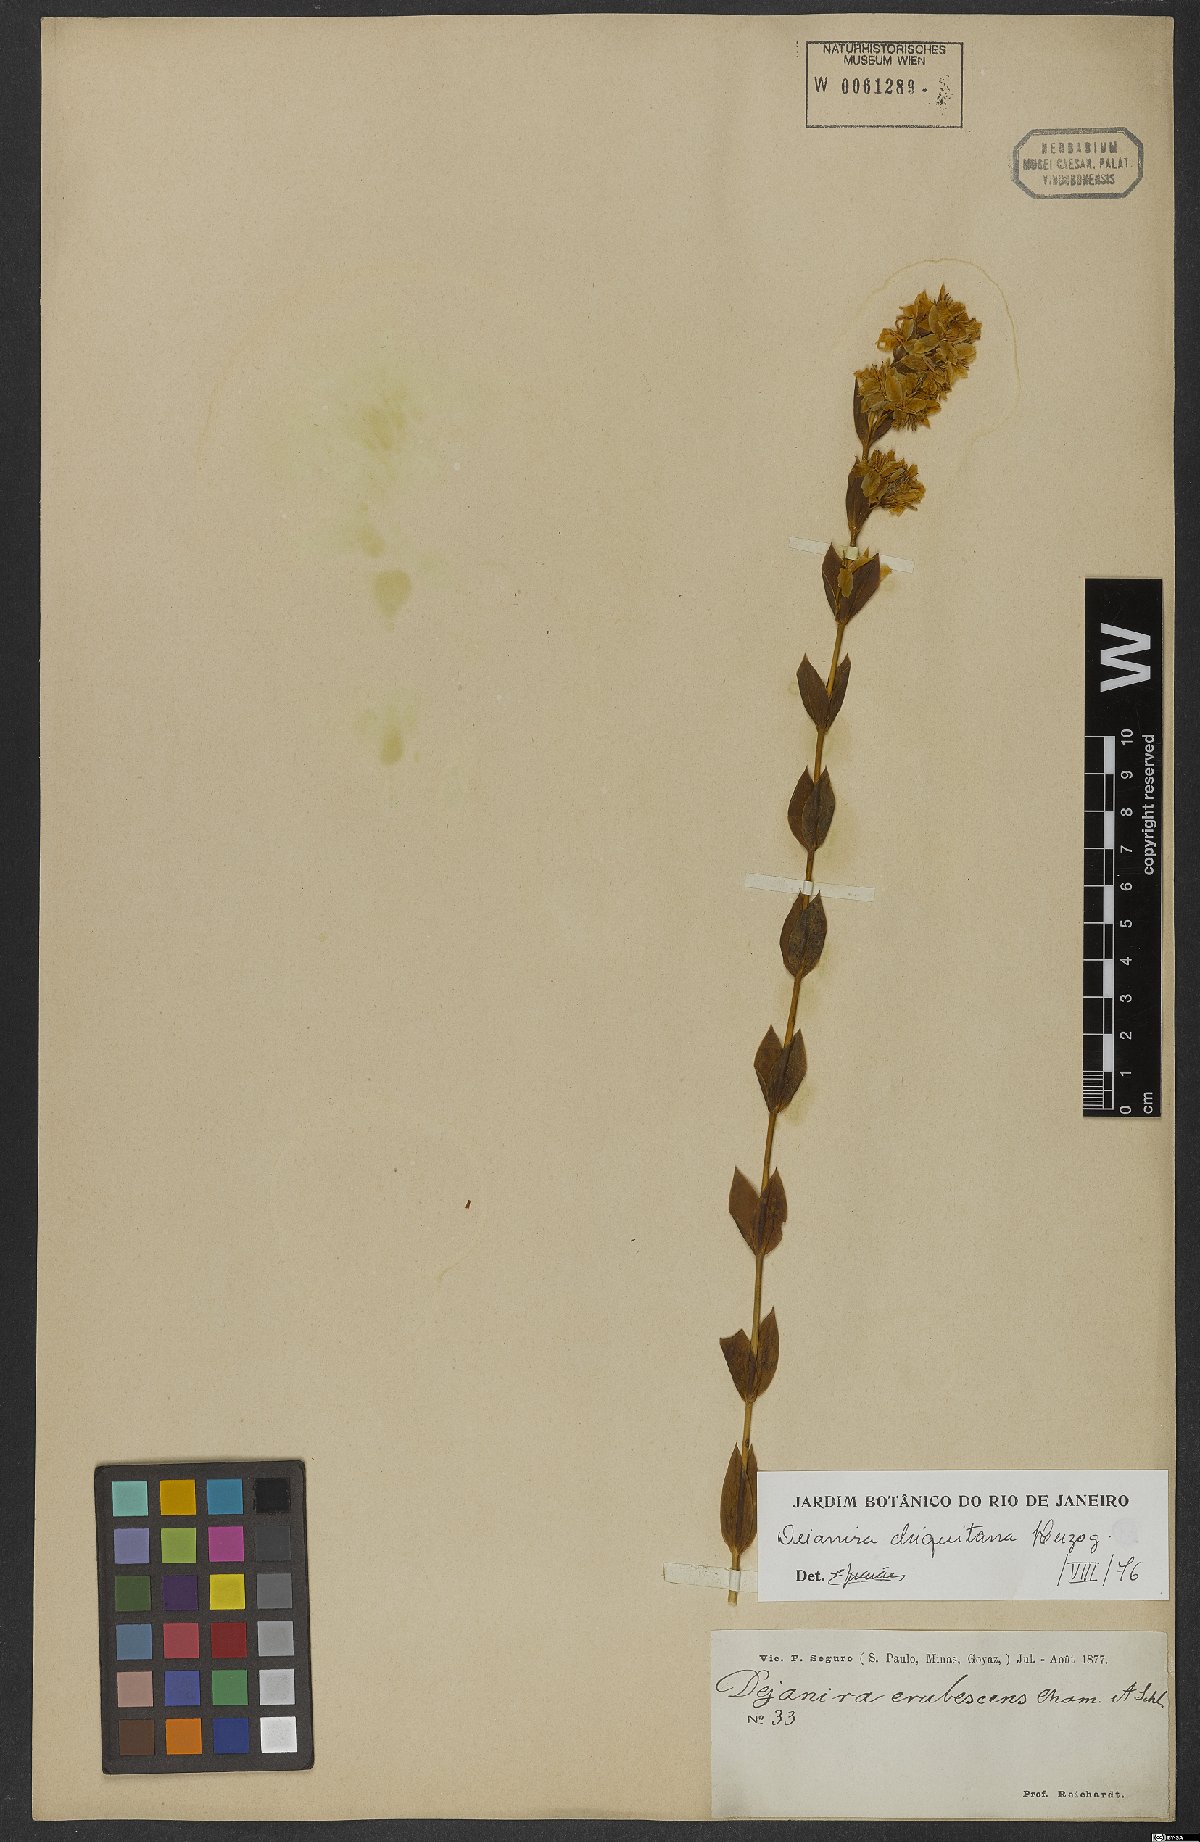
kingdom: Plantae
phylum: Tracheophyta
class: Magnoliopsida
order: Gentianales
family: Gentianaceae
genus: Deianira
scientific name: Deianira chiquitana
